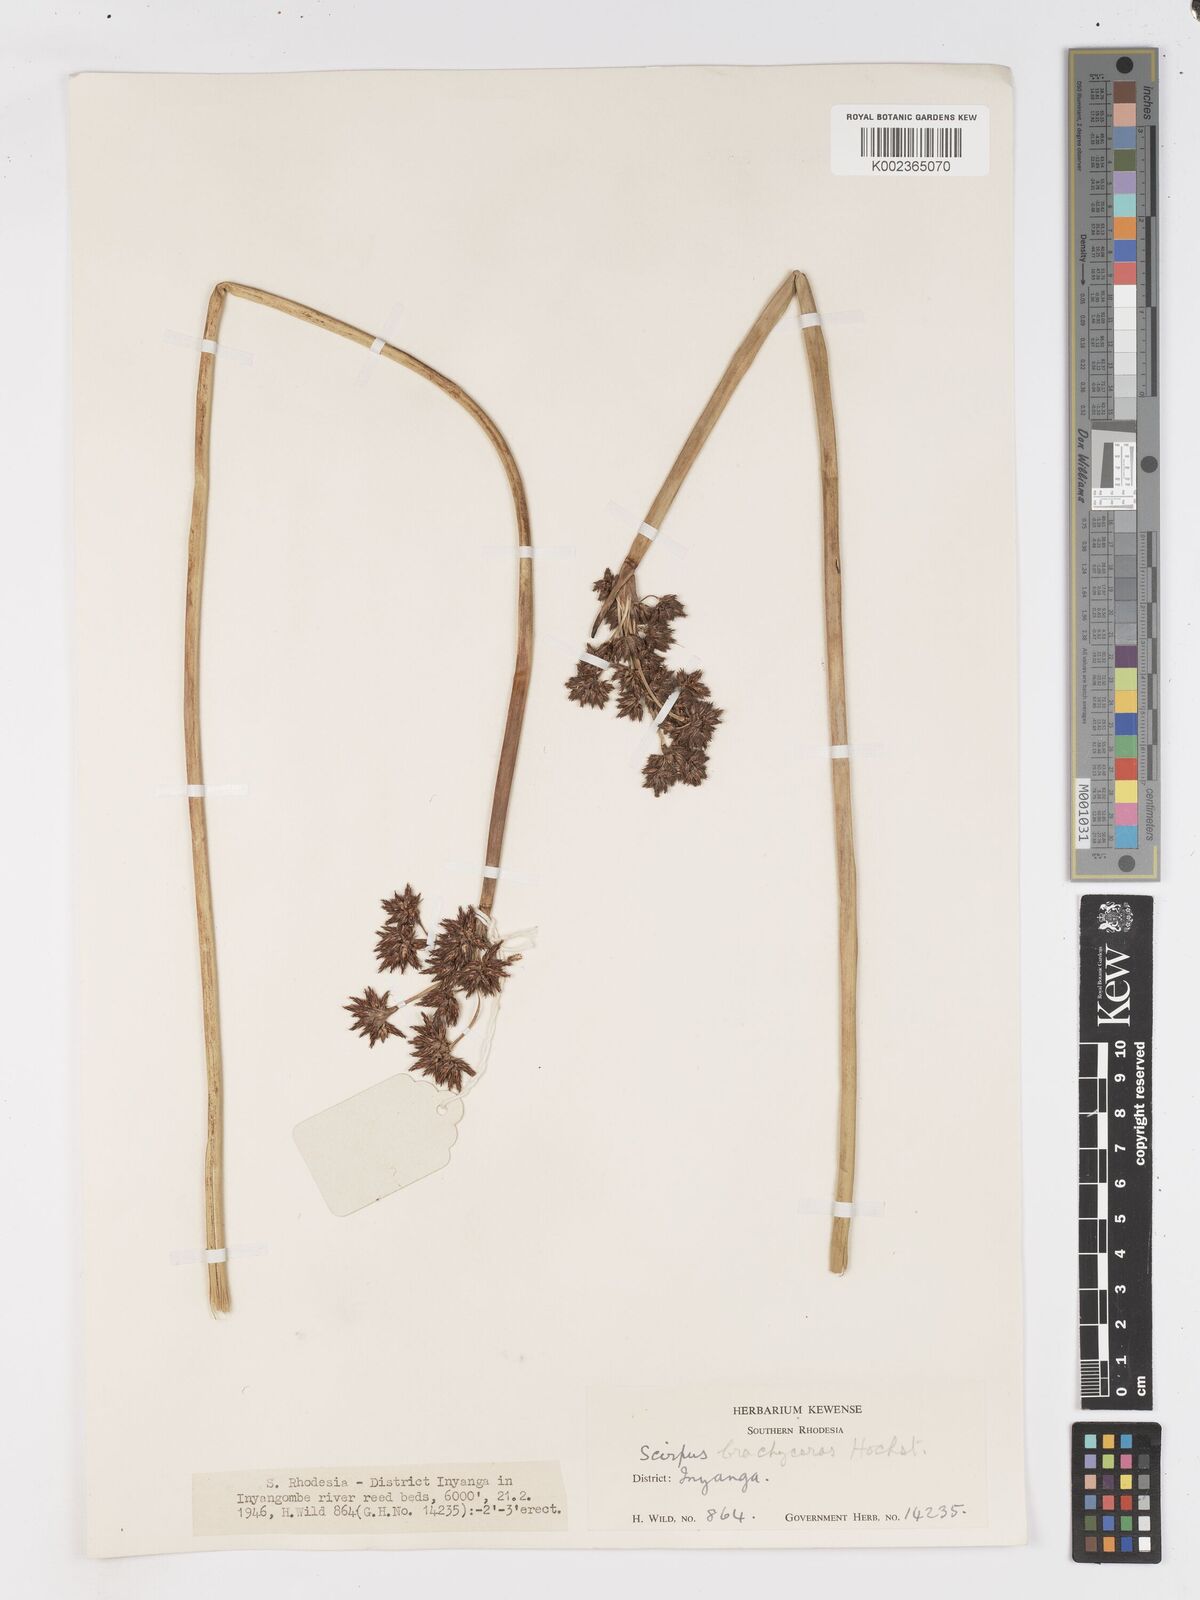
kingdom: Plantae
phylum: Tracheophyta
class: Liliopsida
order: Poales
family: Cyperaceae
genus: Schoenoplectiella
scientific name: Schoenoplectiella brachyceras
